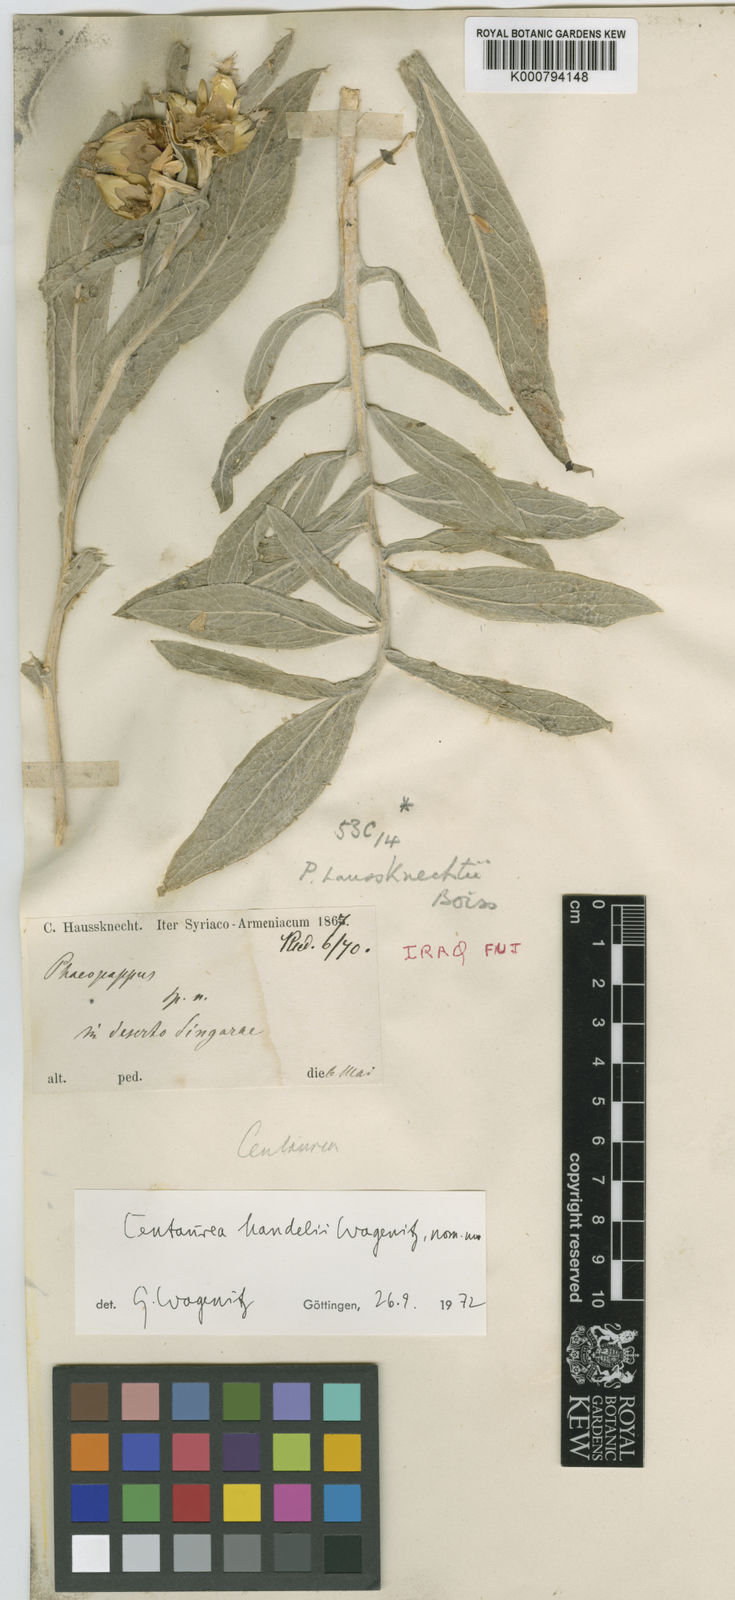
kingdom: Plantae
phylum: Tracheophyta
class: Magnoliopsida
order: Asterales
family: Asteraceae
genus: Centaurea
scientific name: Centaurea handelii
